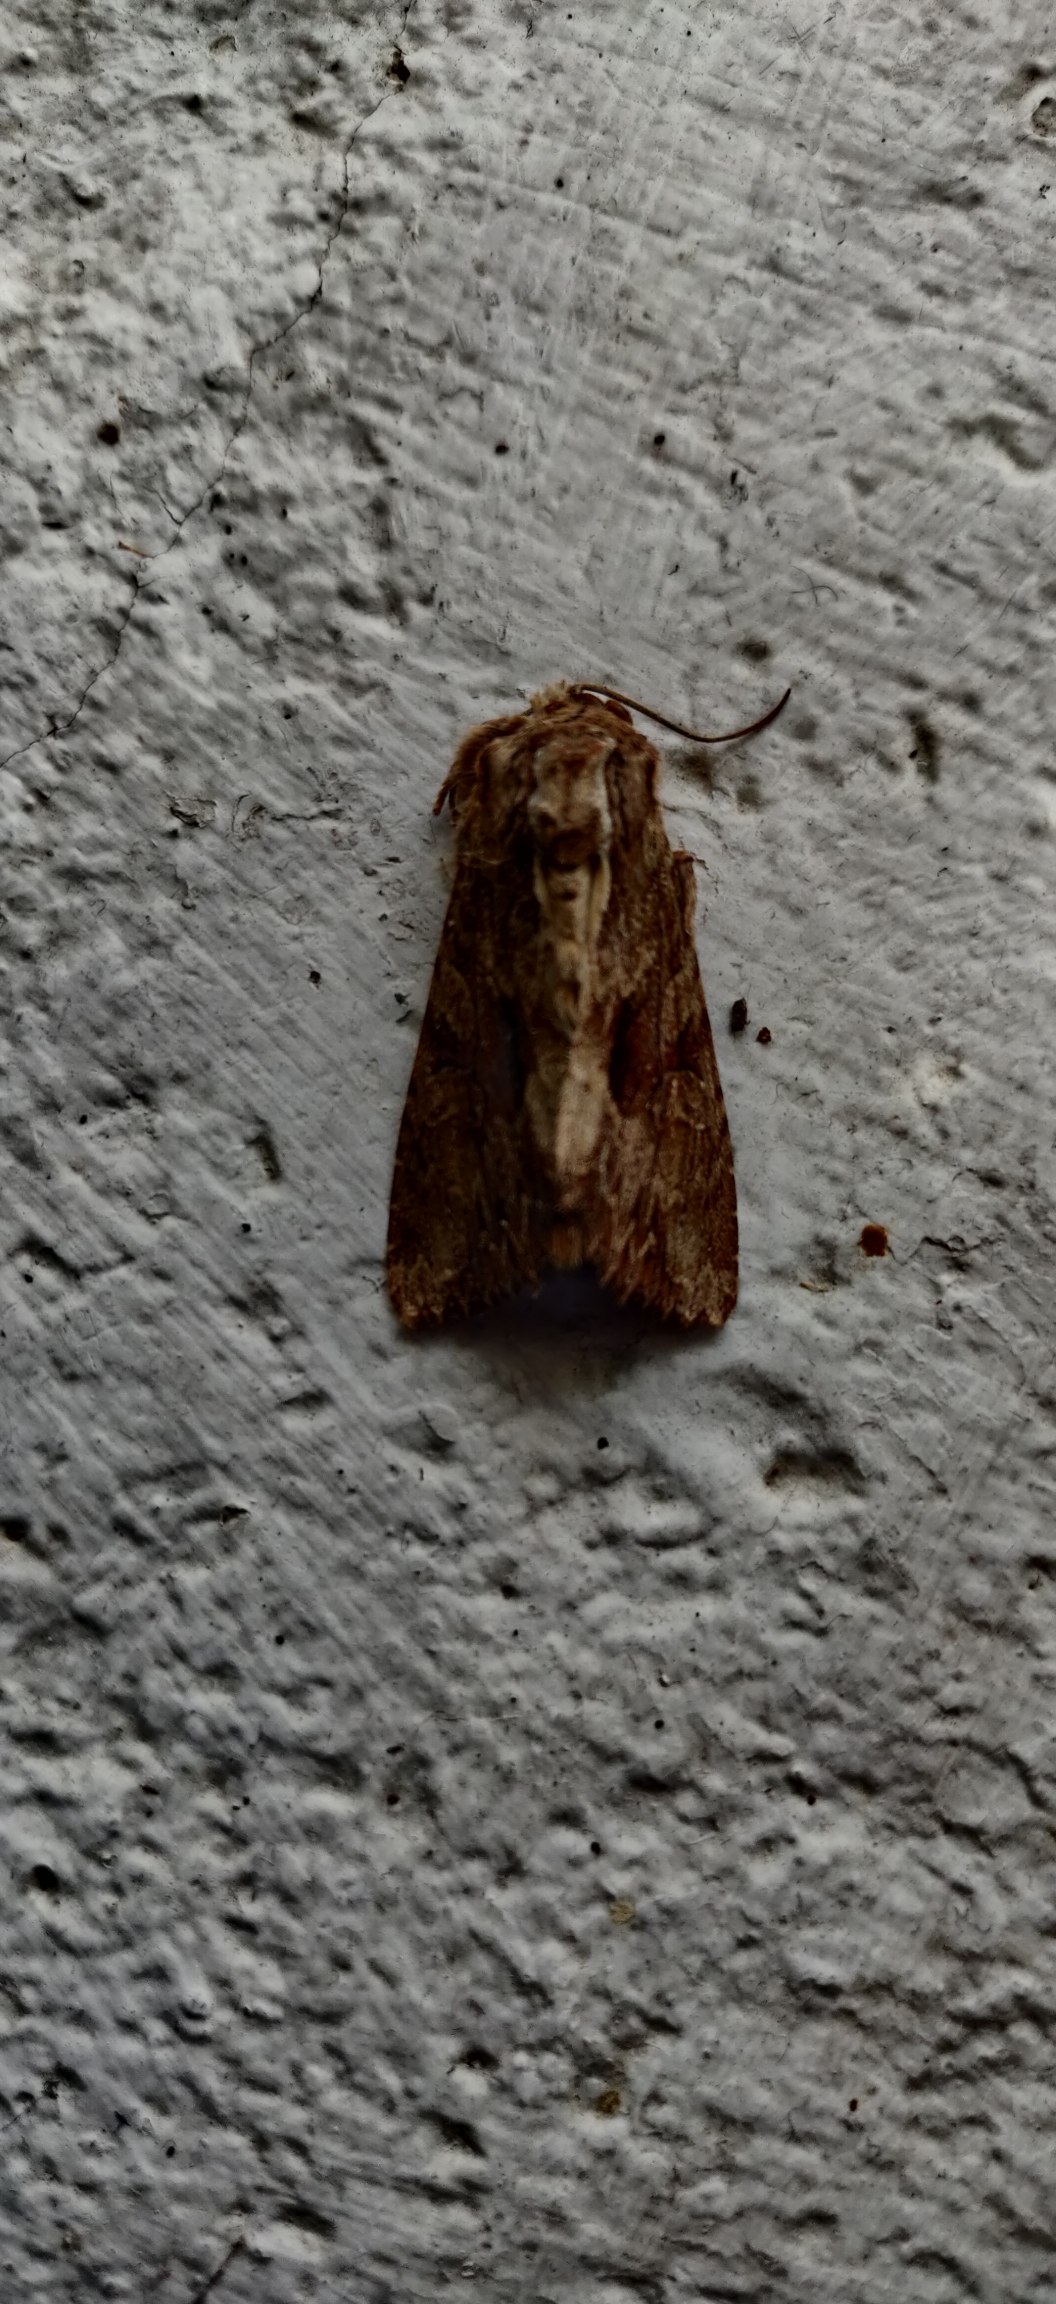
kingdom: Animalia
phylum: Arthropoda
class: Insecta
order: Lepidoptera
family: Noctuidae
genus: Apamea
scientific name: Apamea monoglypha
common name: Jordugle
